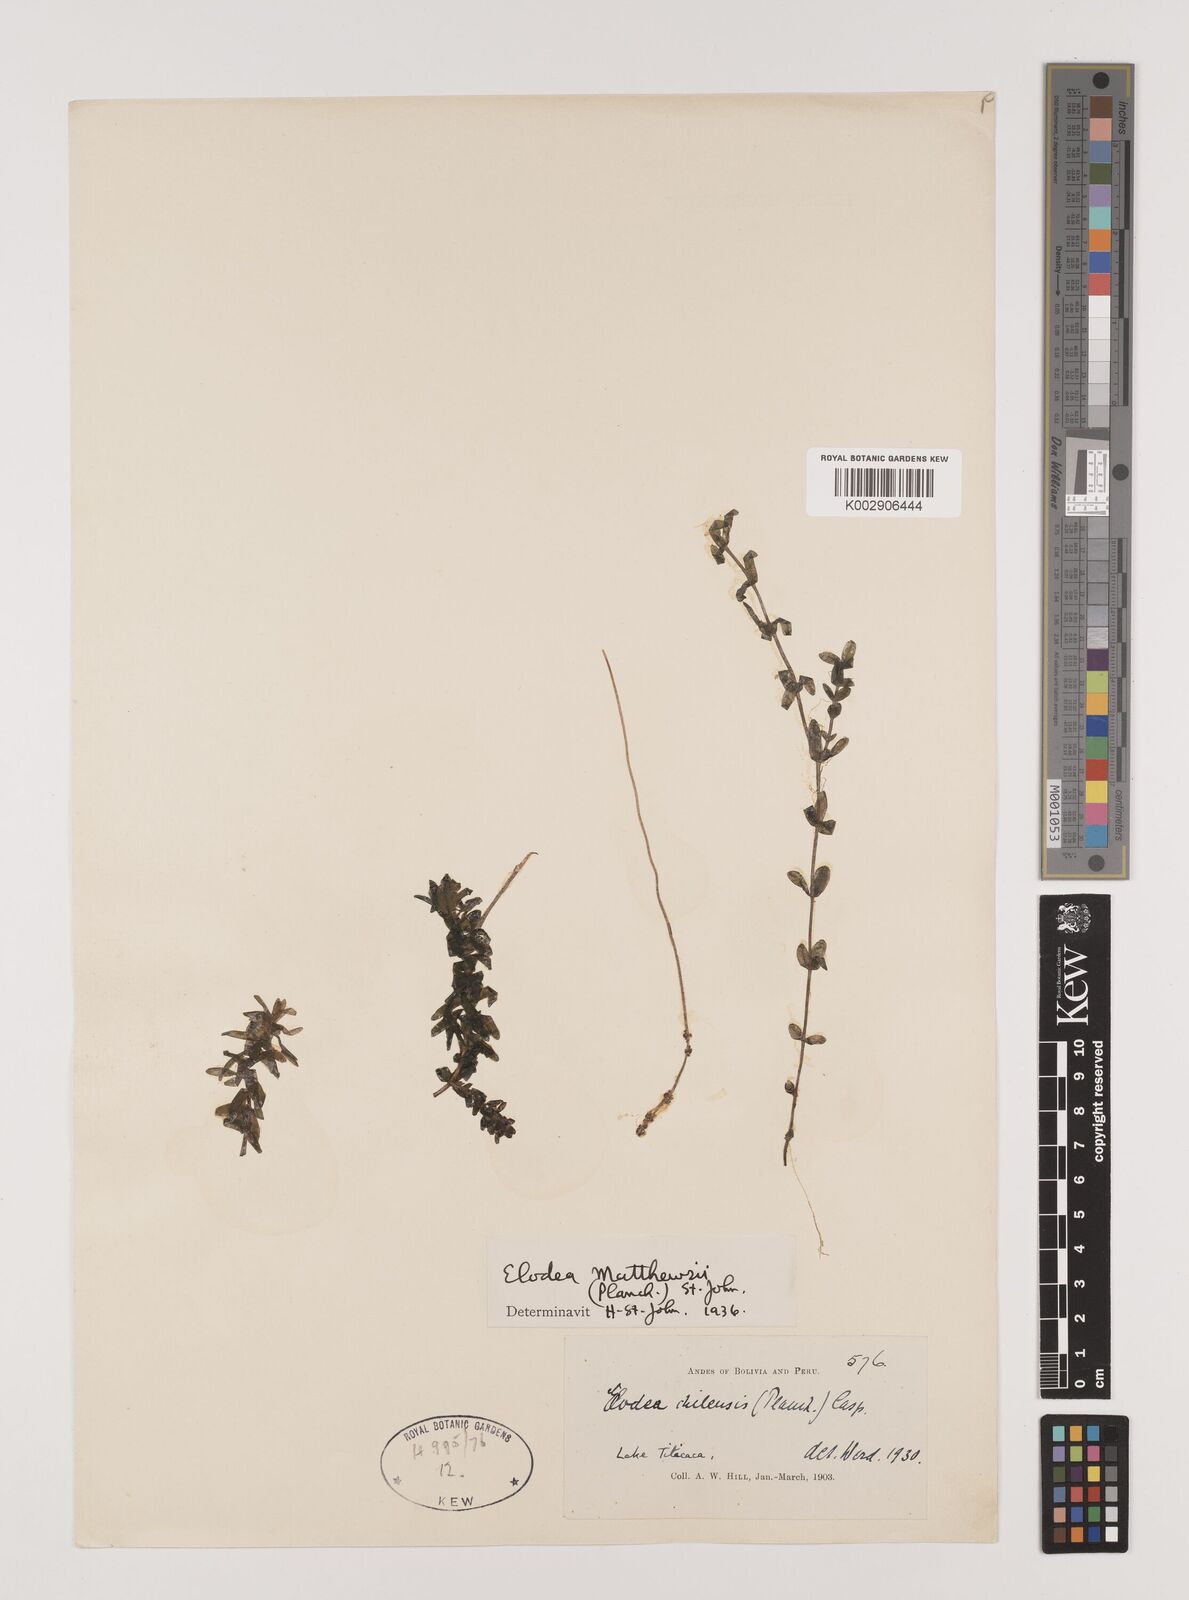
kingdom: Plantae
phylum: Tracheophyta
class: Liliopsida
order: Alismatales
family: Hydrocharitaceae
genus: Elodea
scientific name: Elodea potamogeton
